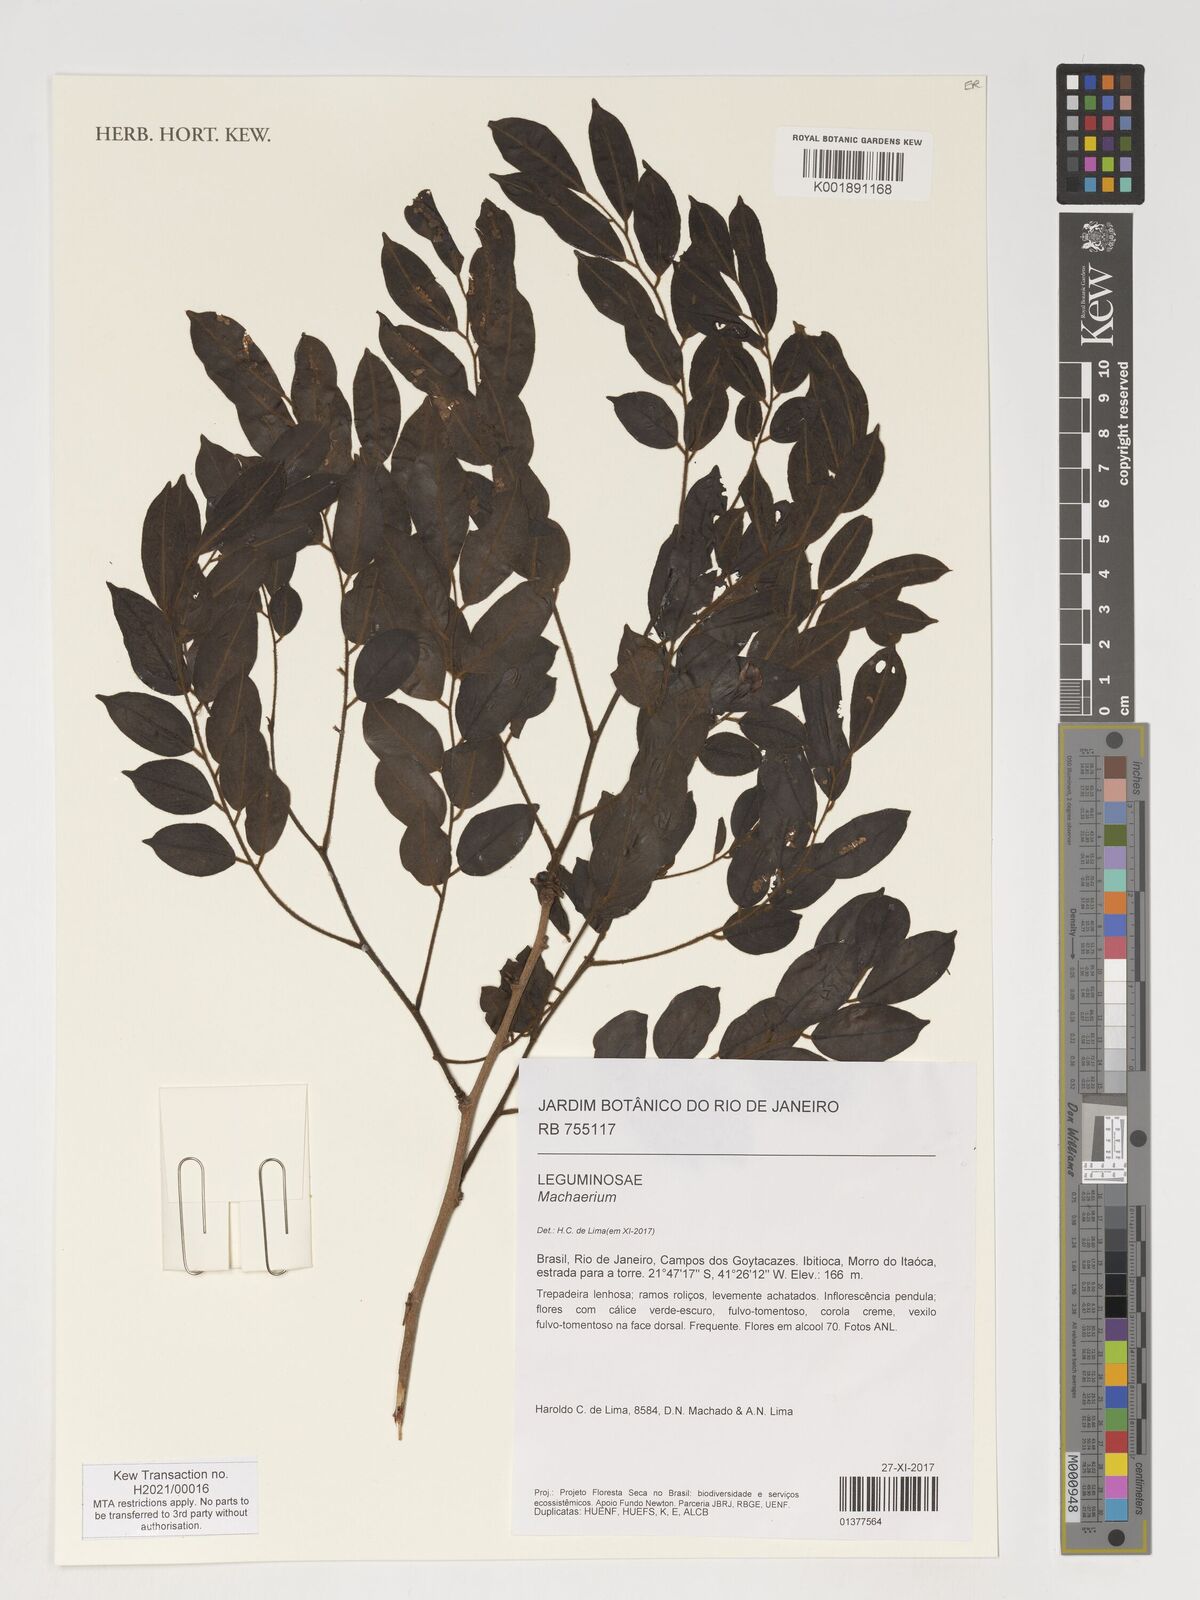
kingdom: Plantae
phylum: Tracheophyta
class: Magnoliopsida
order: Fabales
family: Fabaceae
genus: Machaerium
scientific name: Machaerium
